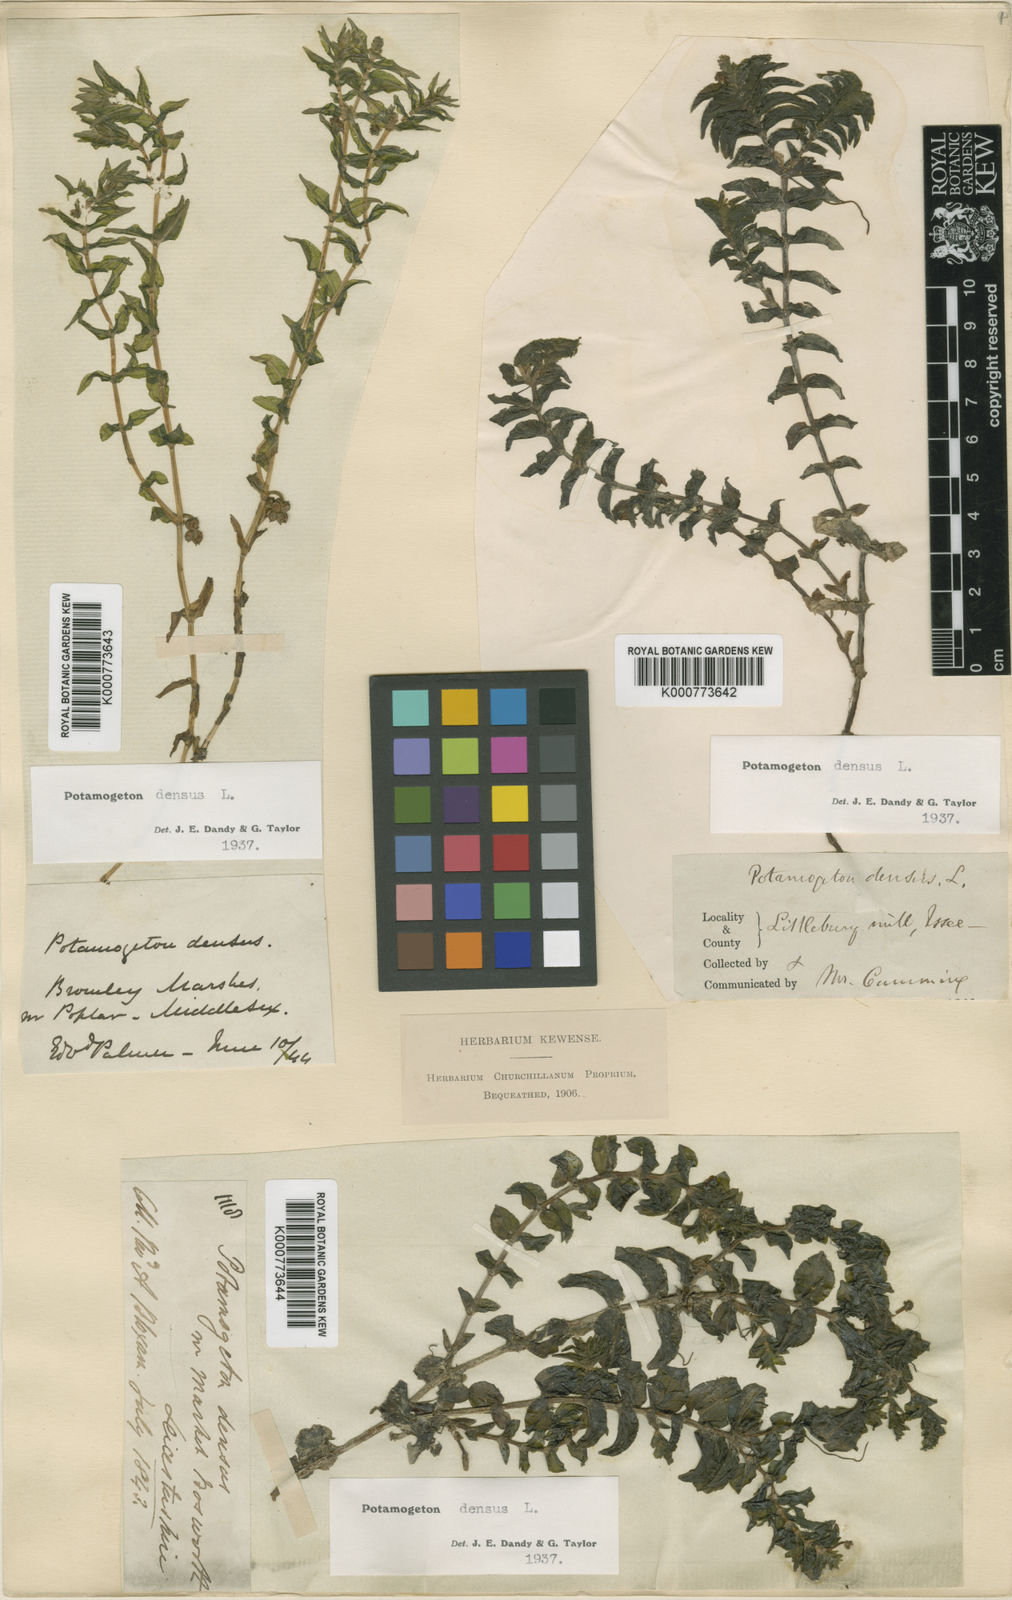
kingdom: Plantae
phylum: Tracheophyta
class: Liliopsida
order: Alismatales
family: Potamogetonaceae
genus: Groenlandia
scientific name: Groenlandia densa
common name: Opposite-leaved pondweed
